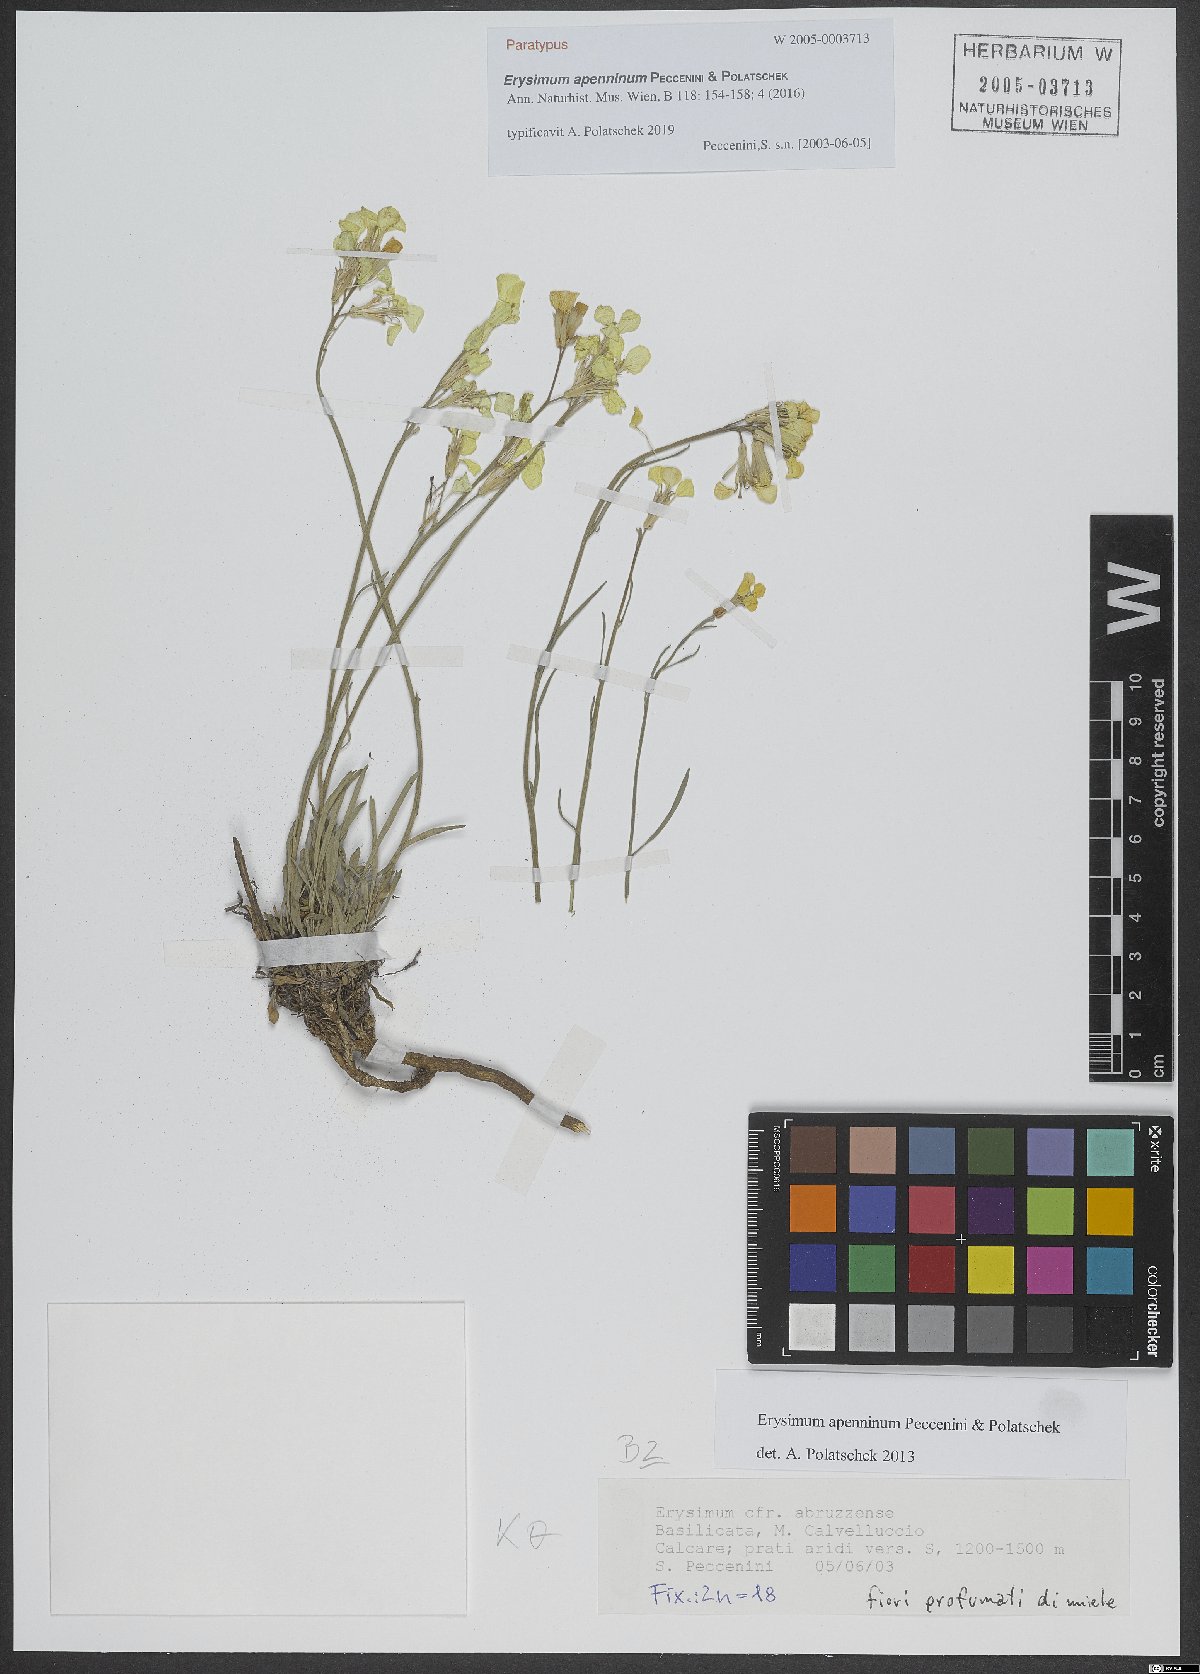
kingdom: Plantae
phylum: Tracheophyta
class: Magnoliopsida
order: Brassicales
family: Brassicaceae
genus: Erysimum
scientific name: Erysimum apenninum
